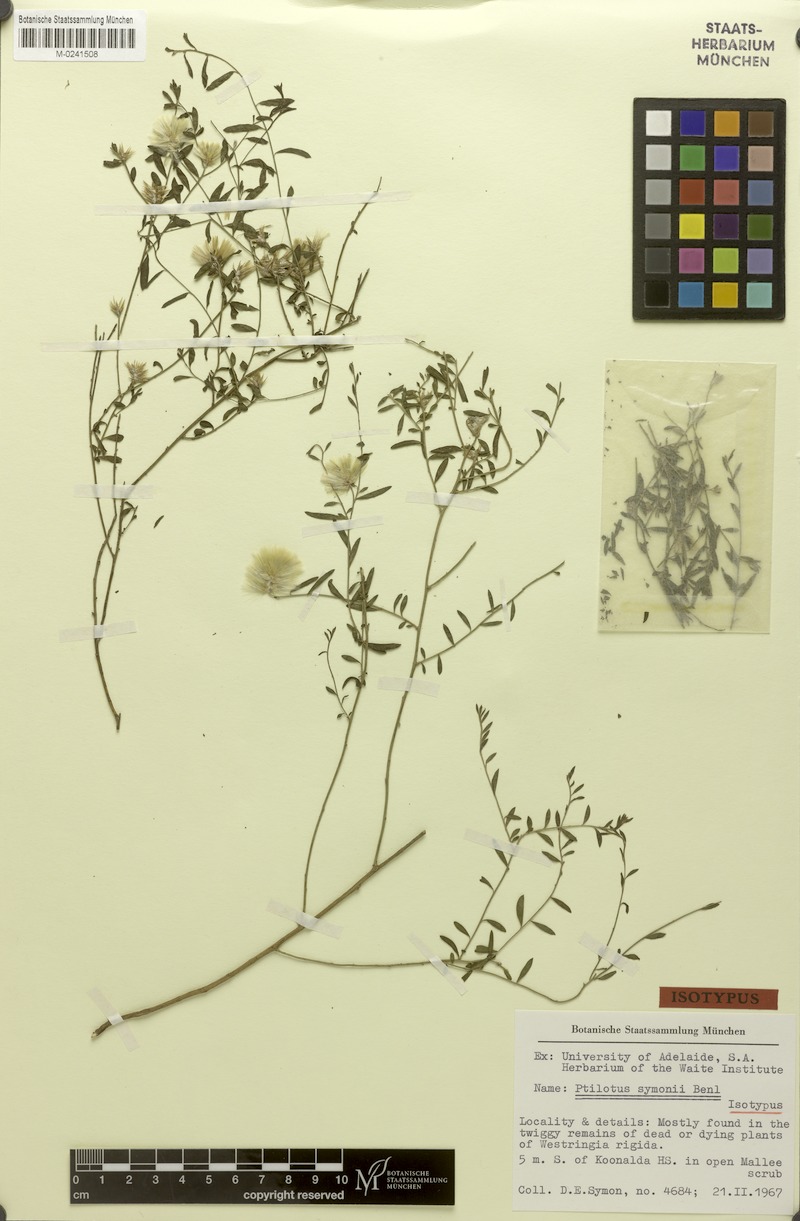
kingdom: Plantae
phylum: Tracheophyta
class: Magnoliopsida
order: Caryophyllales
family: Amaranthaceae
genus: Ptilotus
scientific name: Ptilotus symonii
